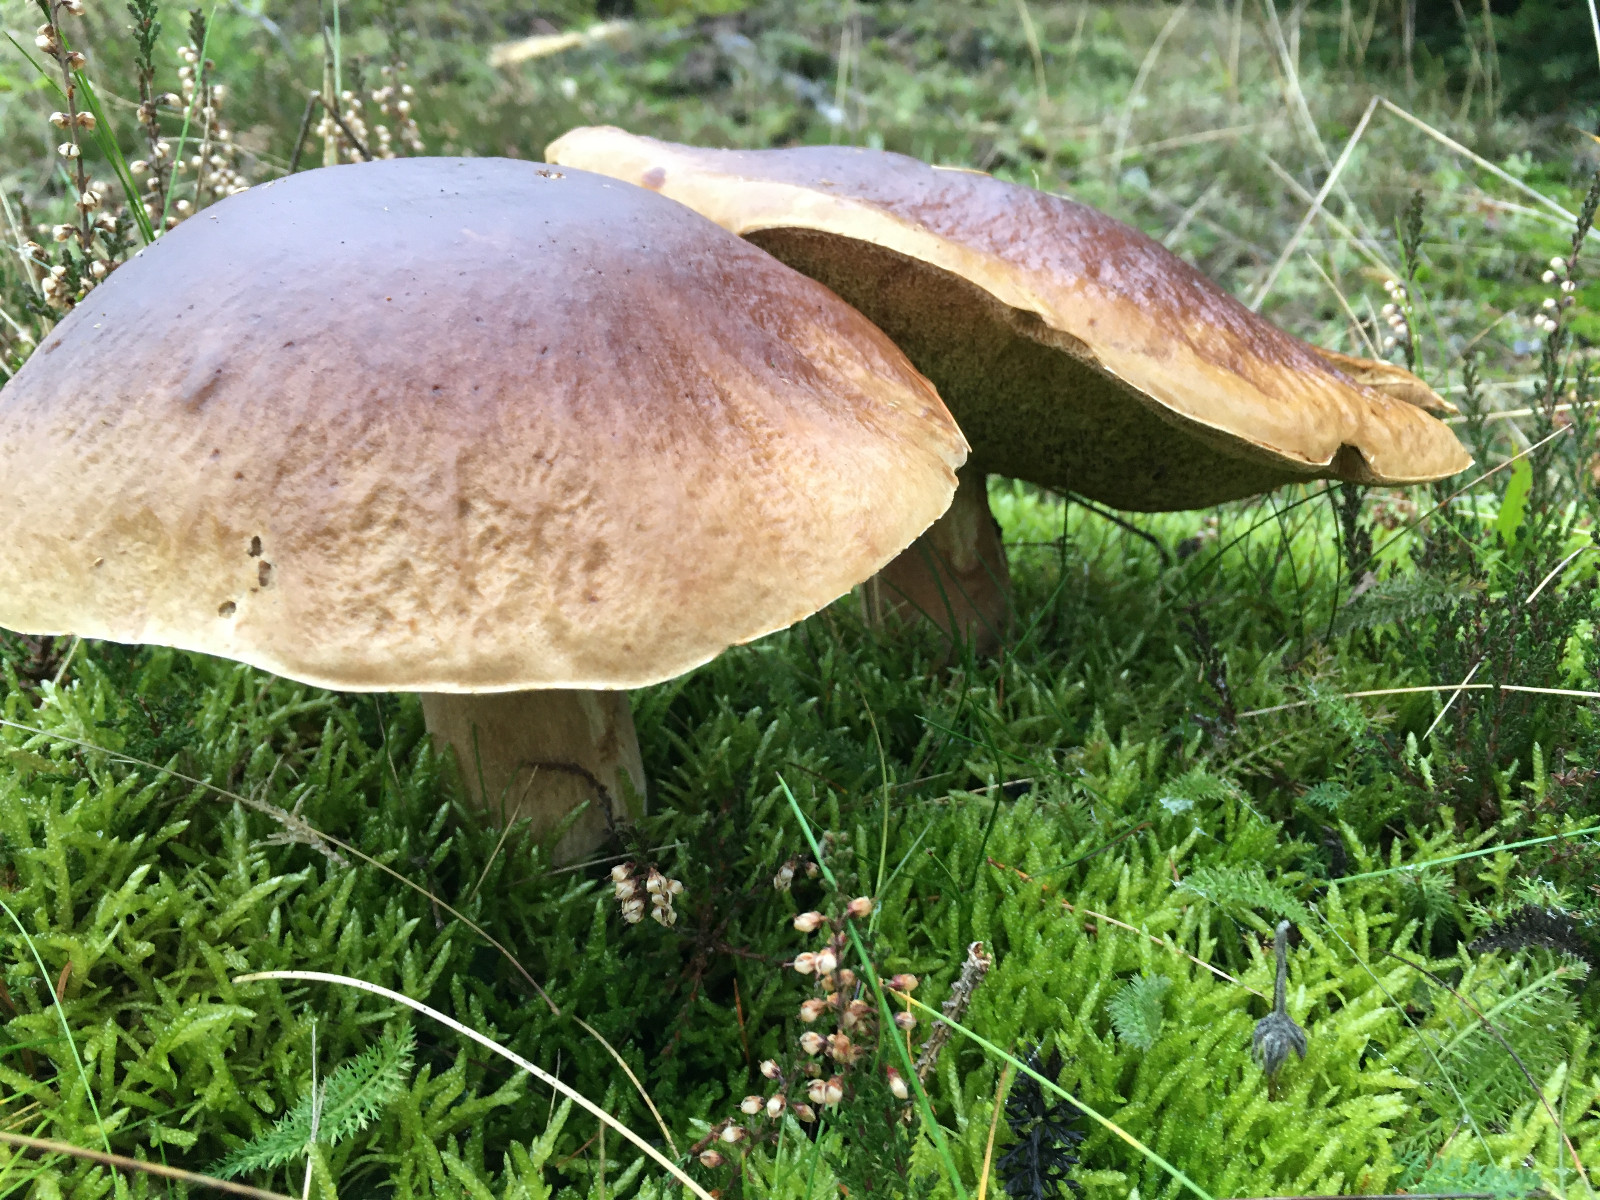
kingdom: Fungi
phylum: Basidiomycota
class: Agaricomycetes
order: Boletales
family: Boletaceae
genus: Boletus
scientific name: Boletus edulis
